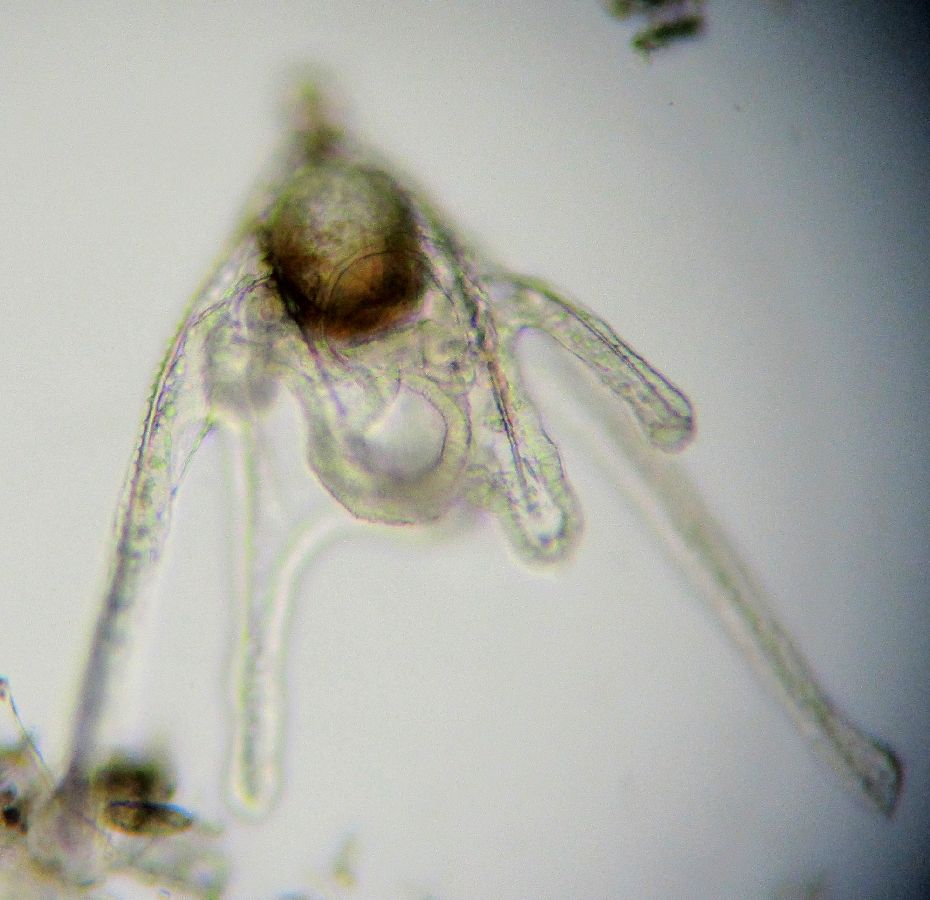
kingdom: Animalia
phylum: Echinodermata
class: Ophiuroidea
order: Amphilepidida
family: Ophiopholidae
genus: Ophiopholis
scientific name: Ophiopholis aculeata
